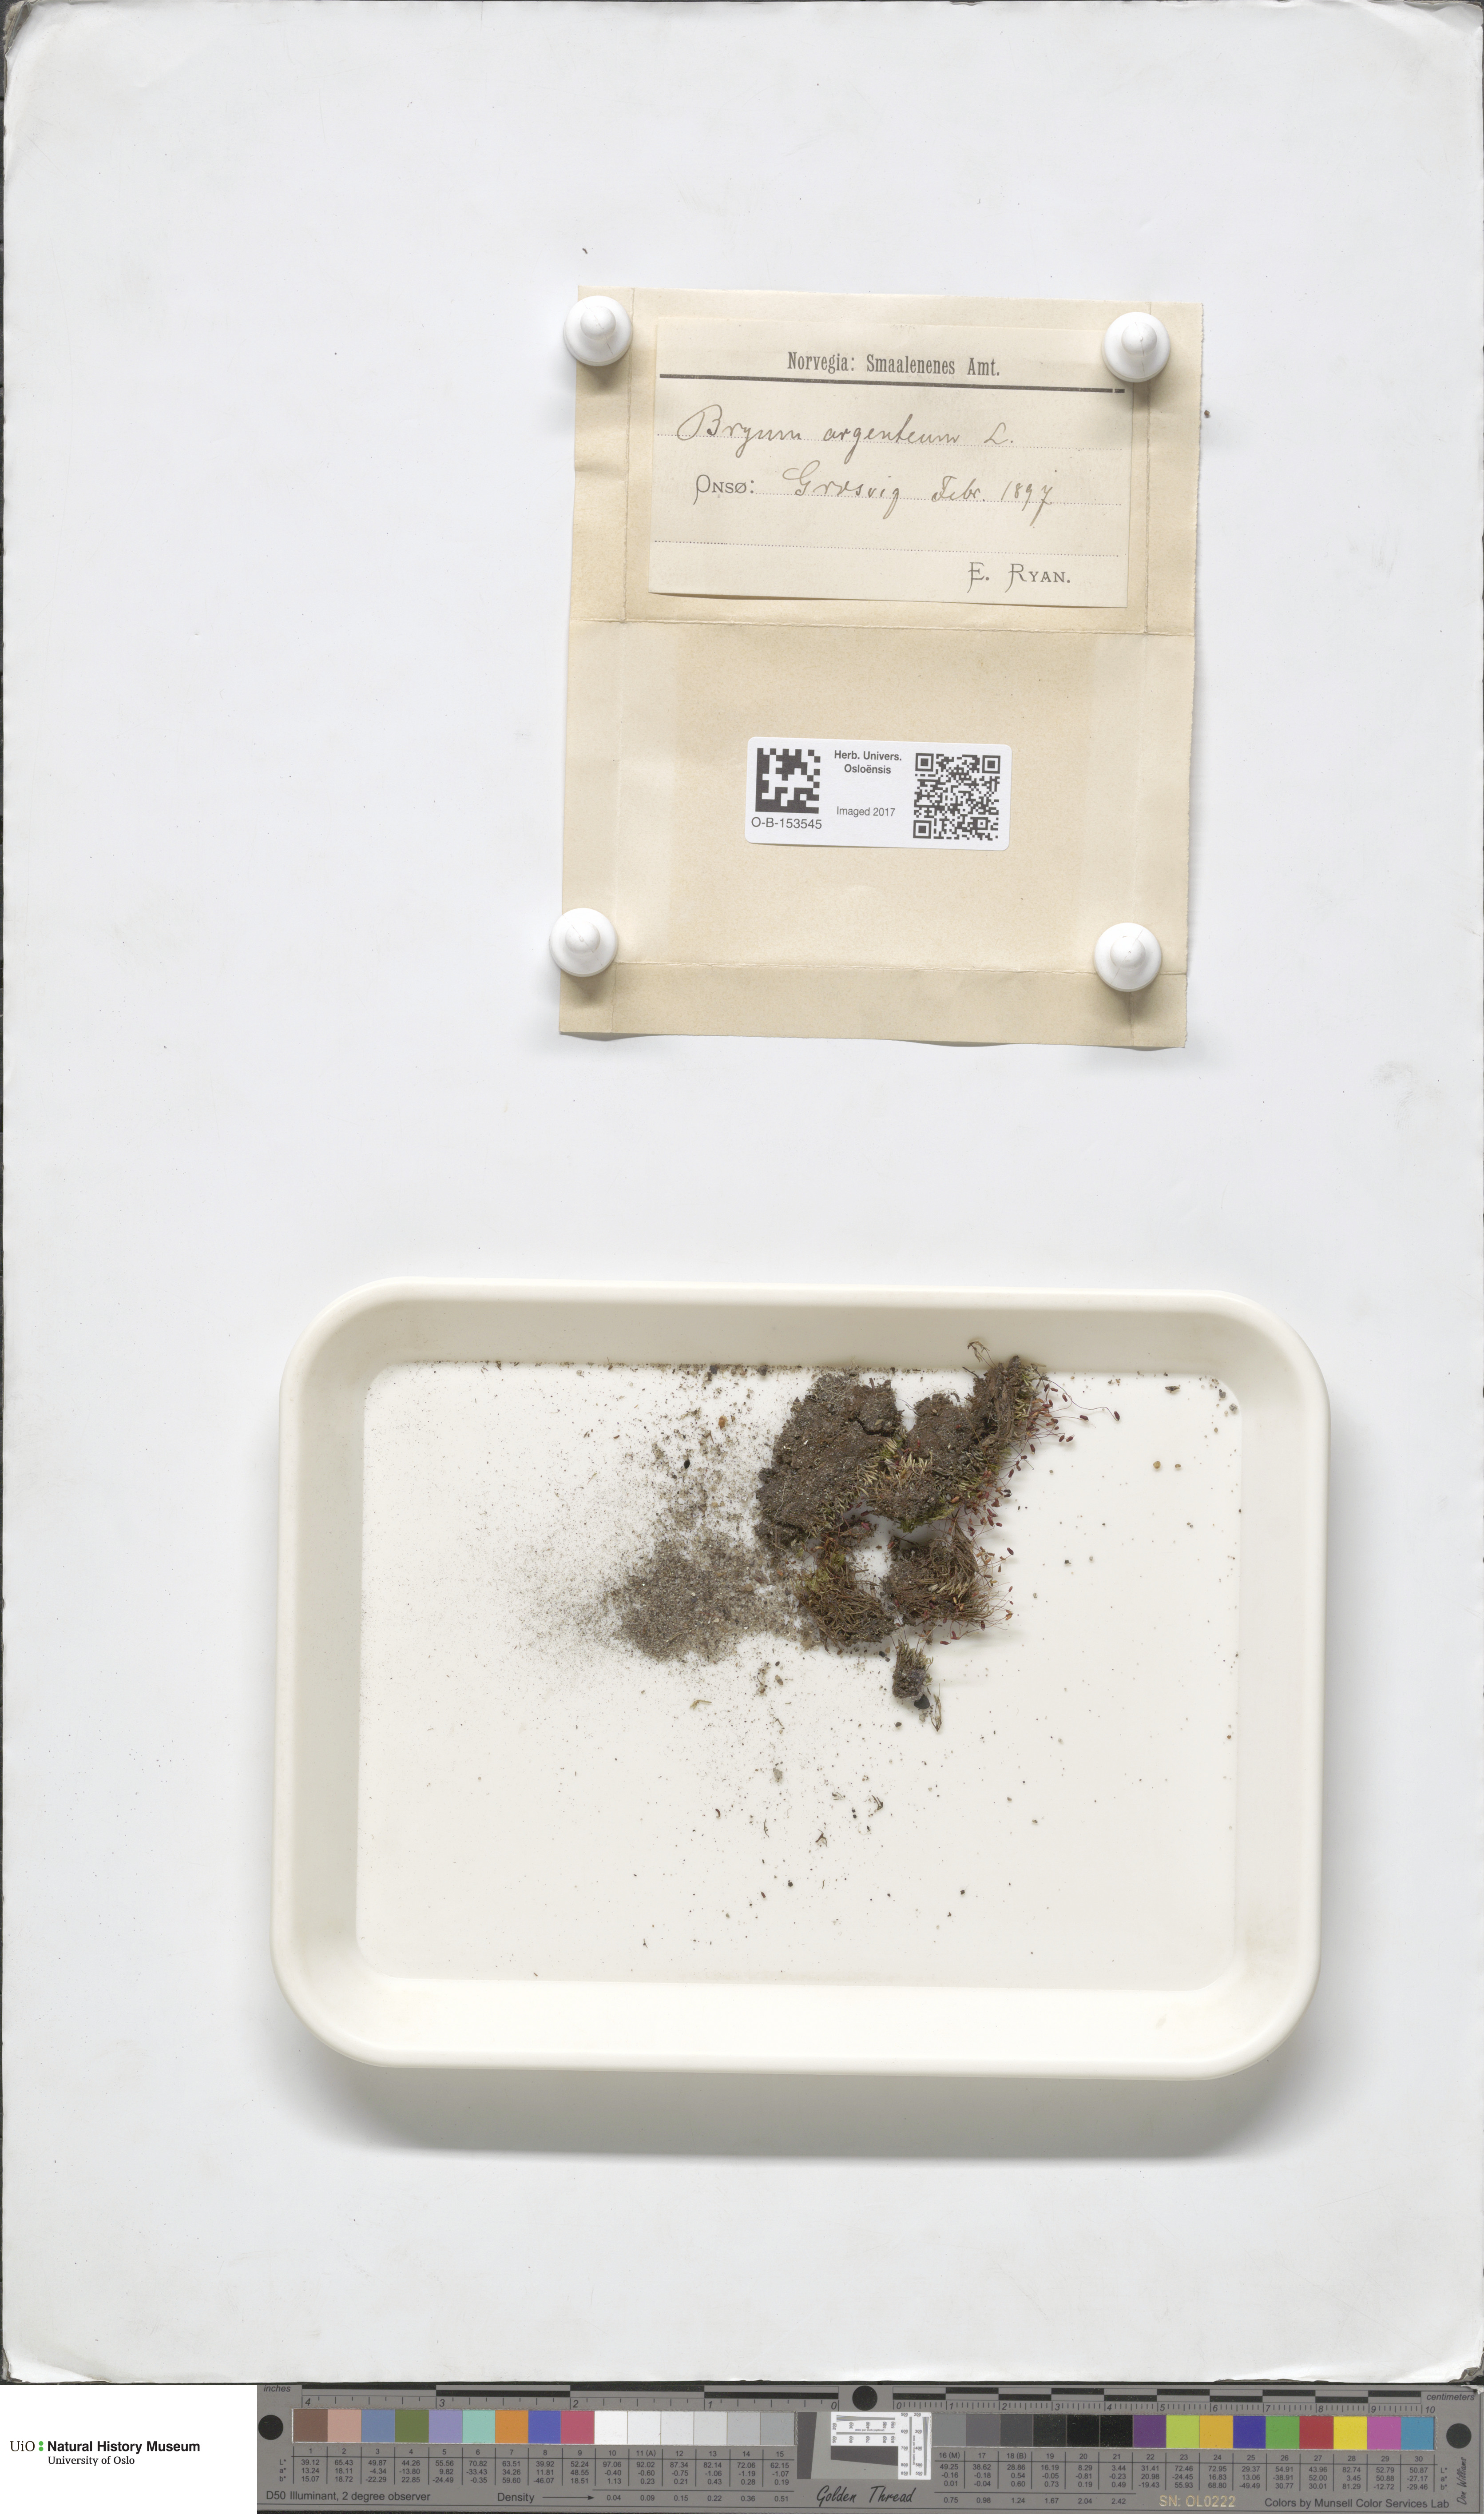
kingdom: Plantae
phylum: Bryophyta
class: Bryopsida
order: Bryales
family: Bryaceae
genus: Bryum
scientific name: Bryum argenteum
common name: Silver-moss
